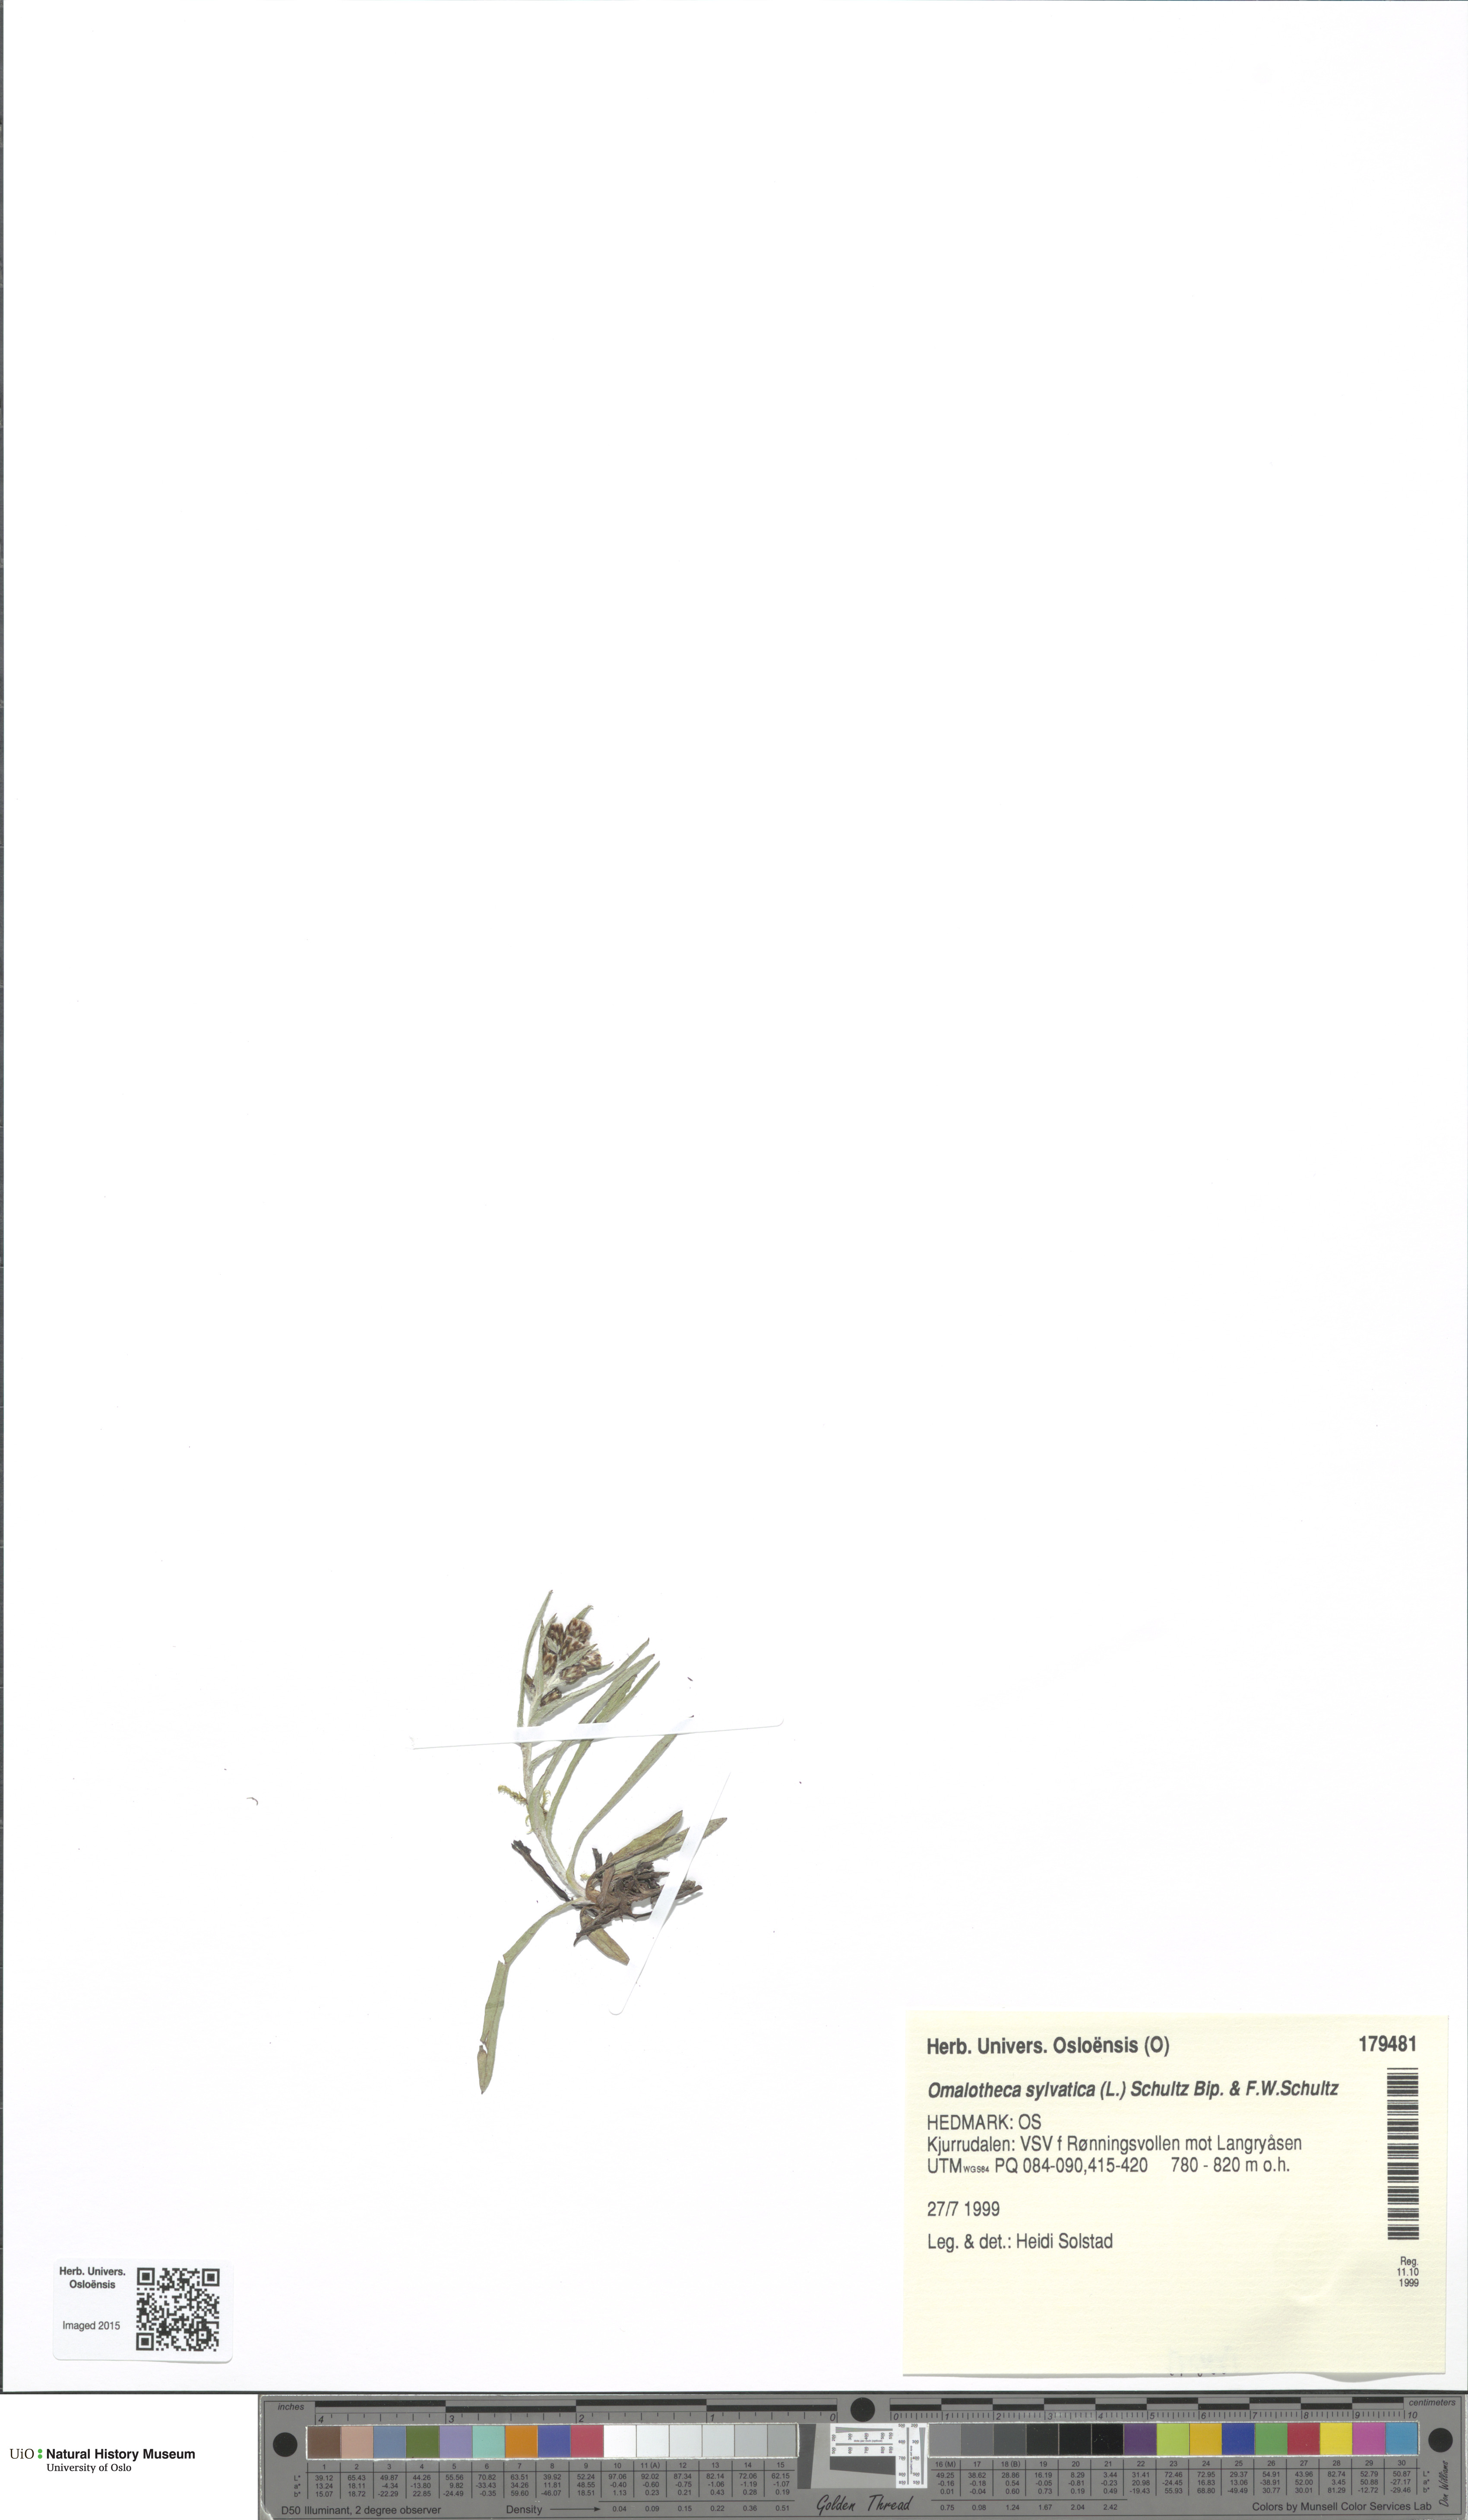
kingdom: Plantae
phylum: Tracheophyta
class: Magnoliopsida
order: Asterales
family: Asteraceae
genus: Omalotheca
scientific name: Omalotheca sylvatica
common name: Heath cudweed
